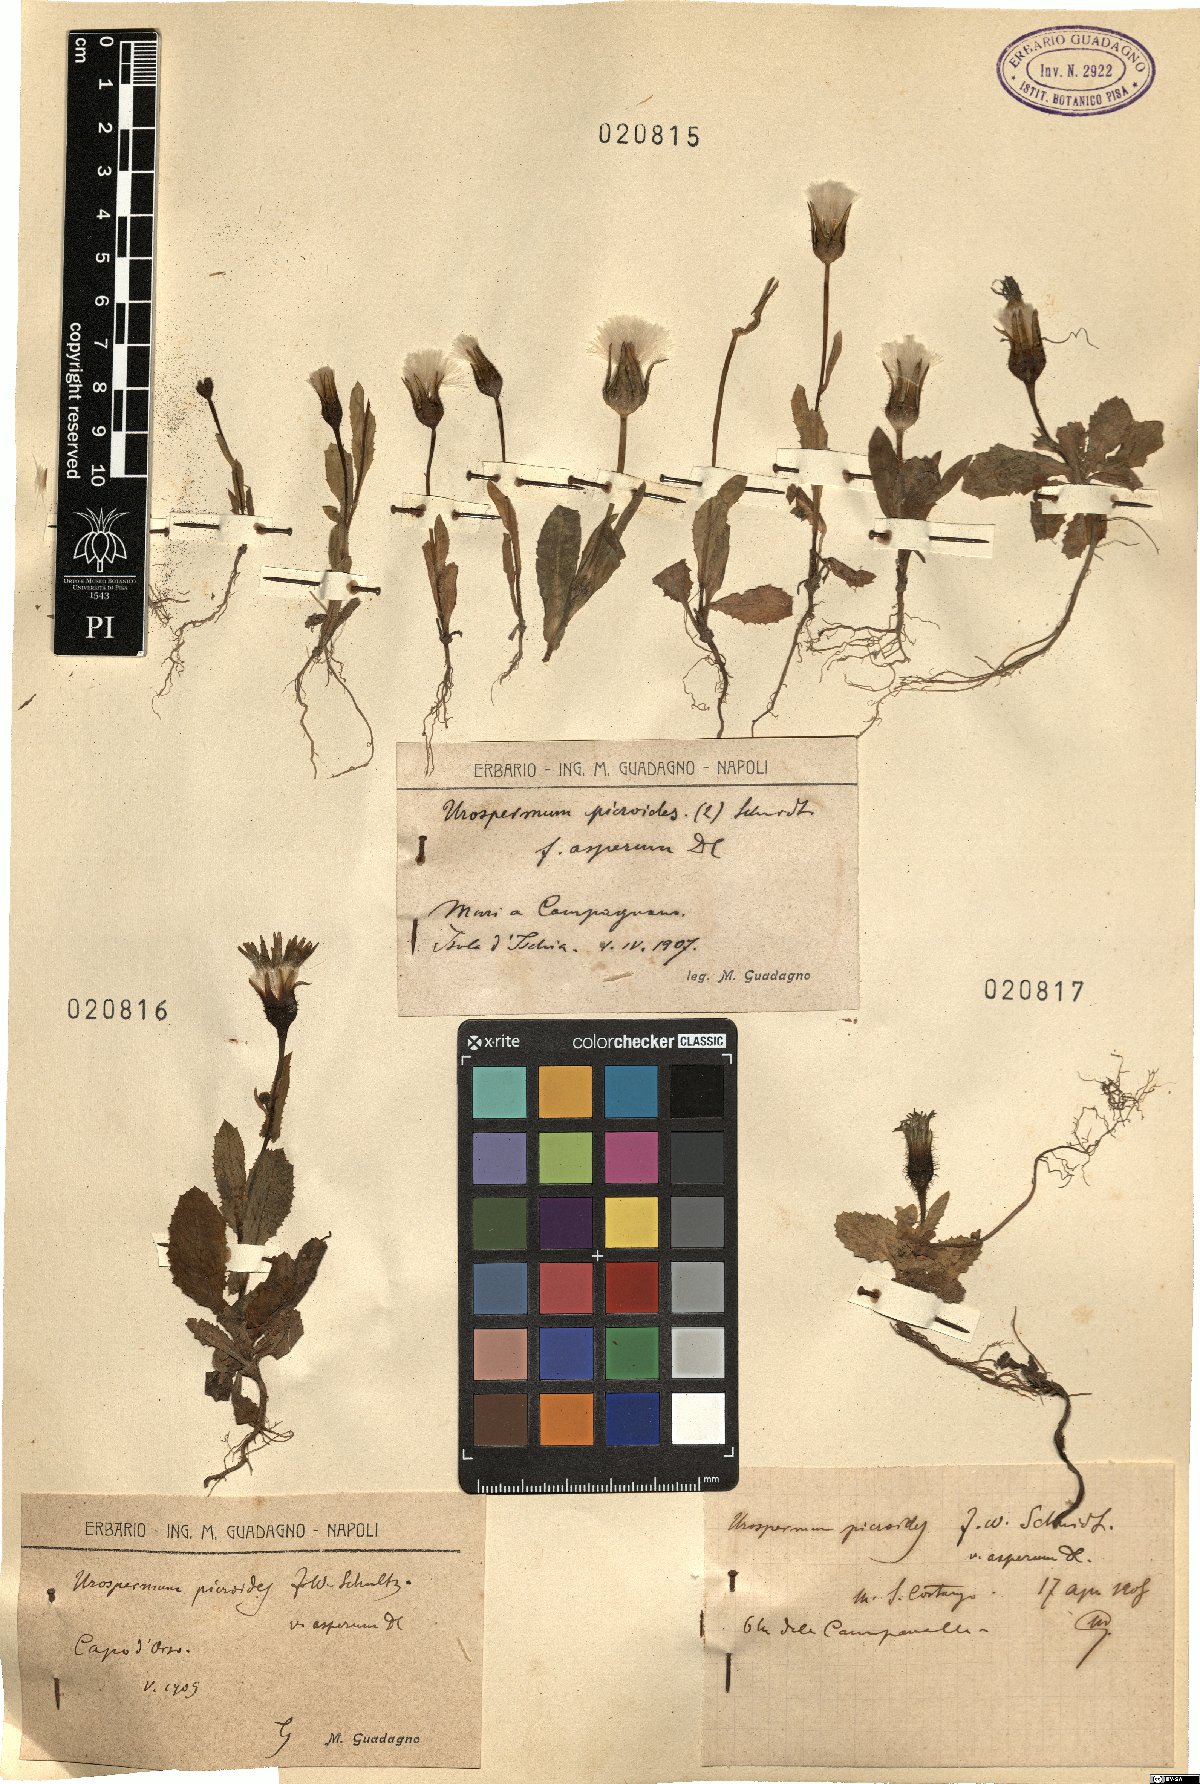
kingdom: Plantae
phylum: Tracheophyta
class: Magnoliopsida
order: Asterales
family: Asteraceae
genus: Urospermum
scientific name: Urospermum picroides
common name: False hawkbit
